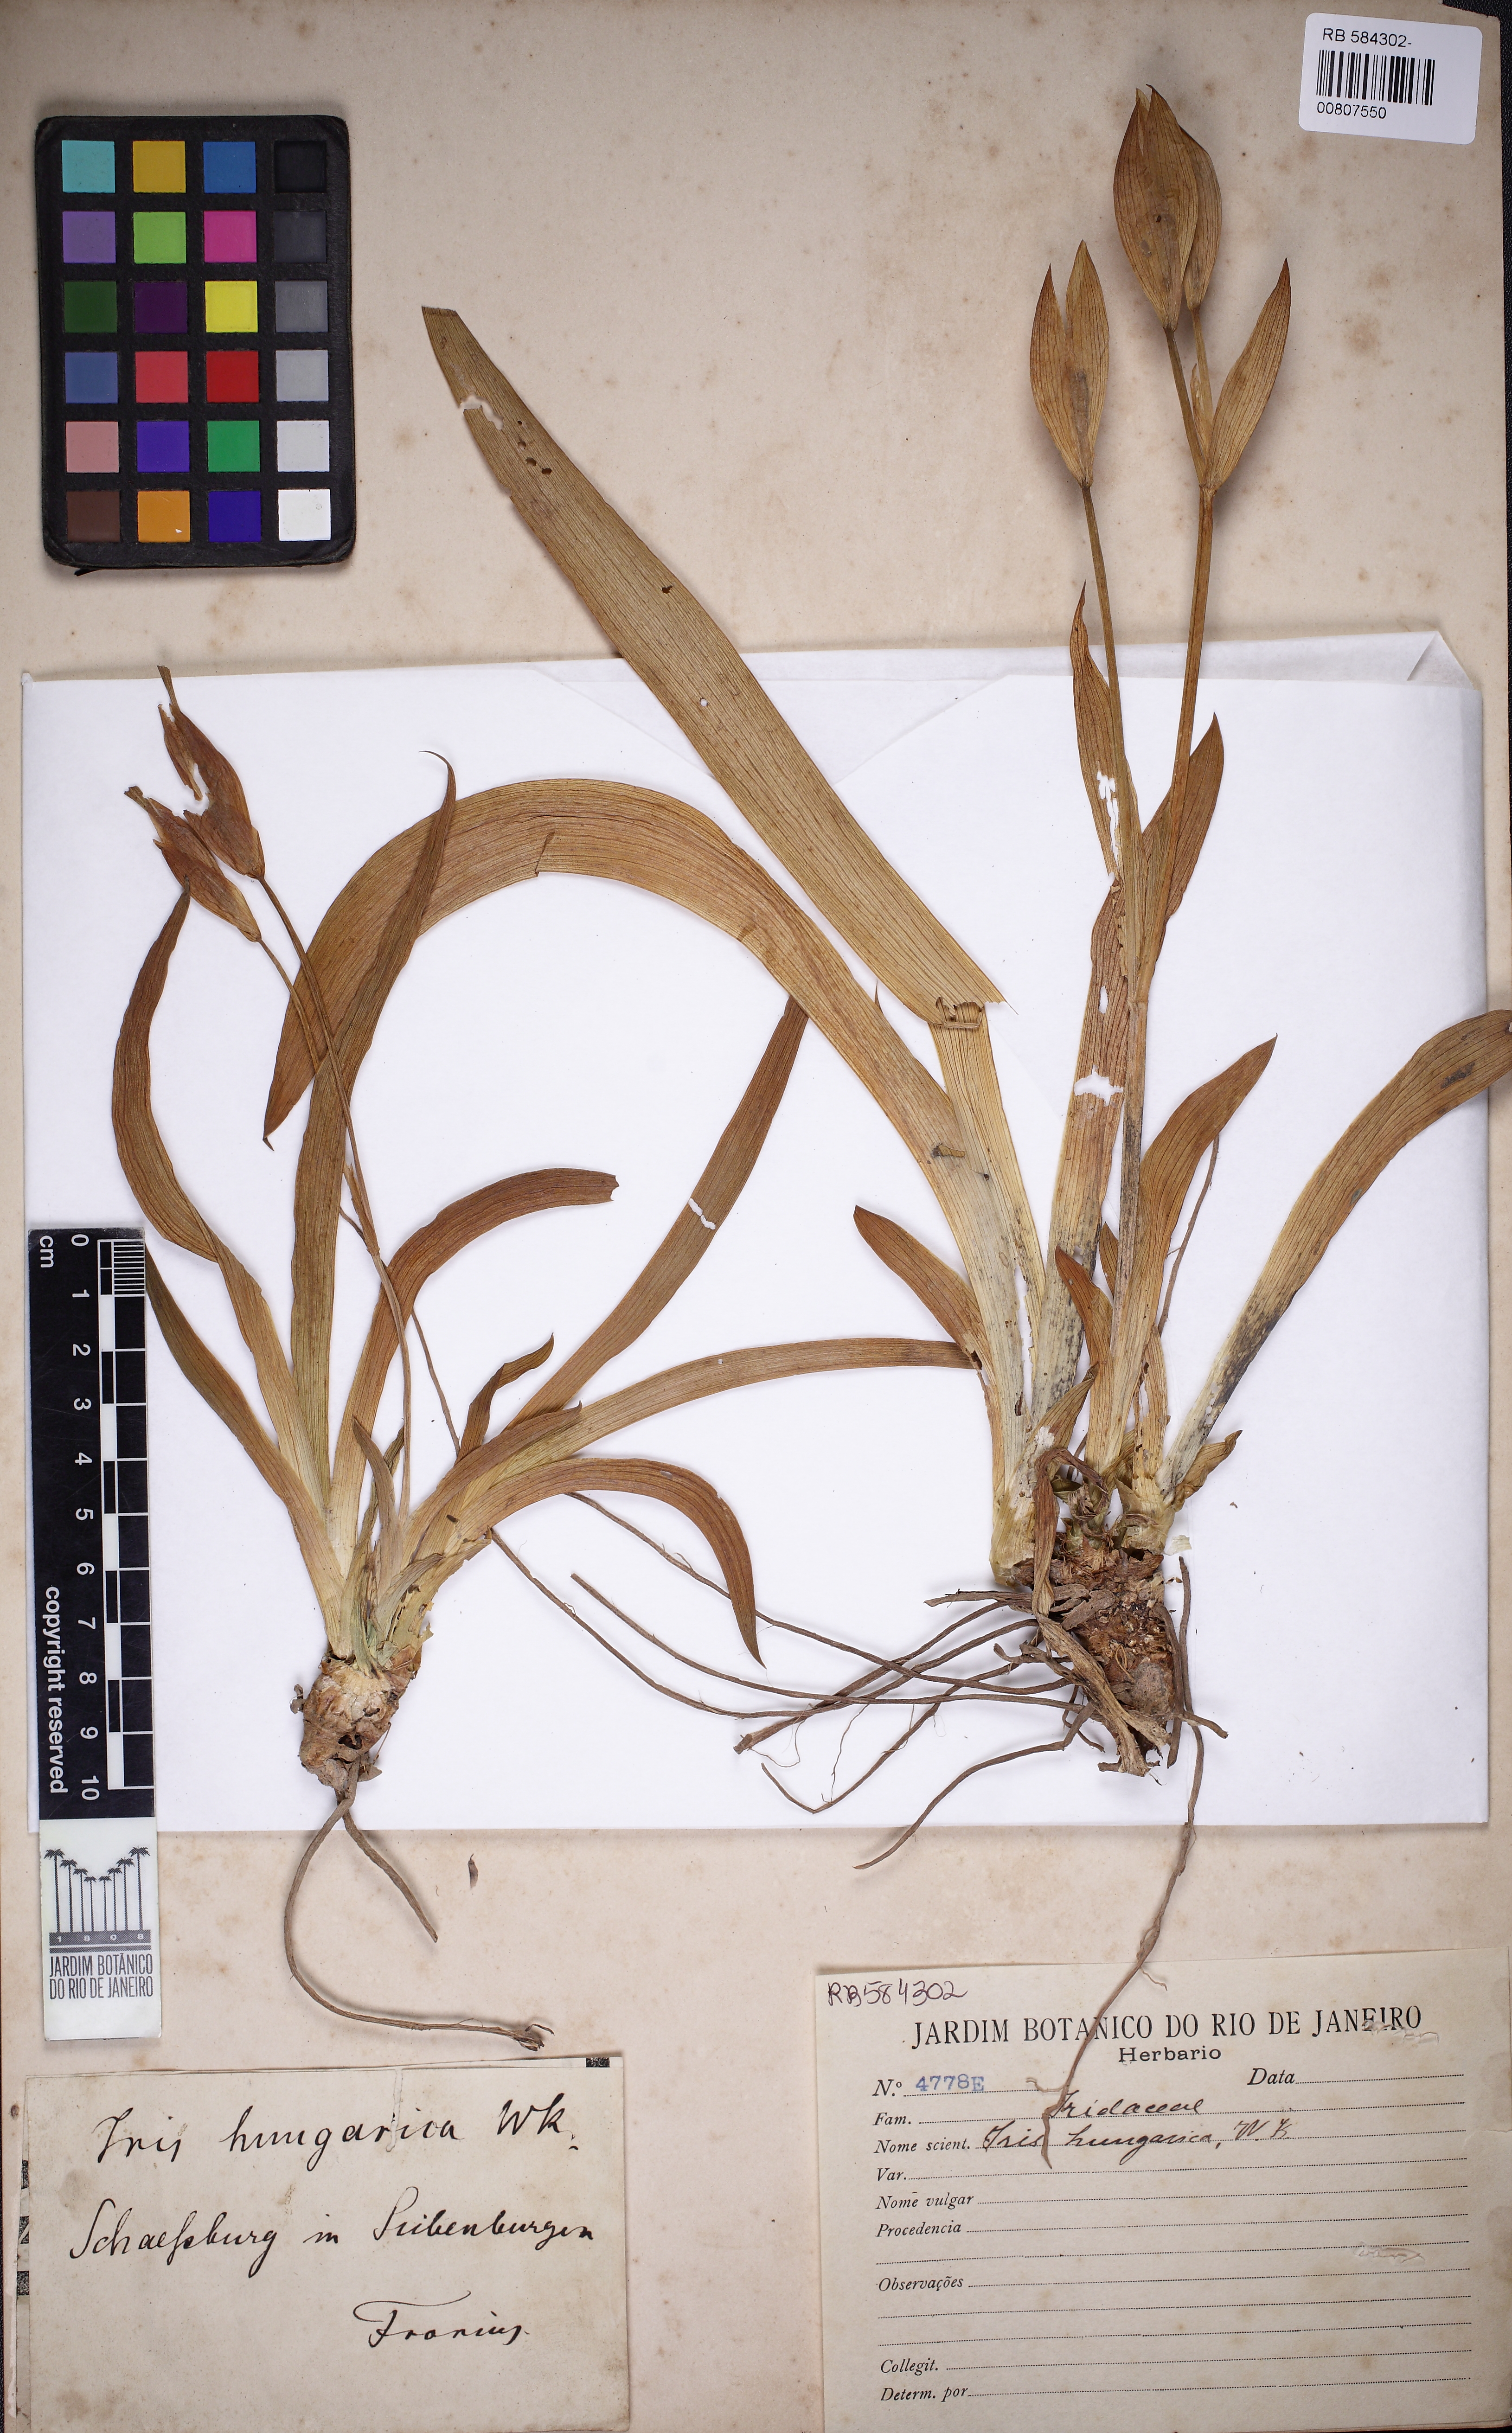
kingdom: Plantae
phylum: Tracheophyta
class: Liliopsida
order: Asparagales
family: Iridaceae
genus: Iris
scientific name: Iris aphylla
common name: Stool iris
